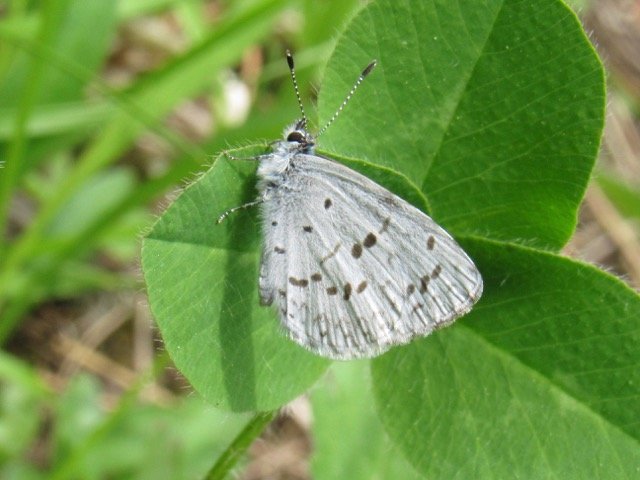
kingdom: Animalia
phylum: Arthropoda
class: Insecta
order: Lepidoptera
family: Lycaenidae
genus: Celastrina
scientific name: Celastrina lucia
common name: Northern Spring Azure
